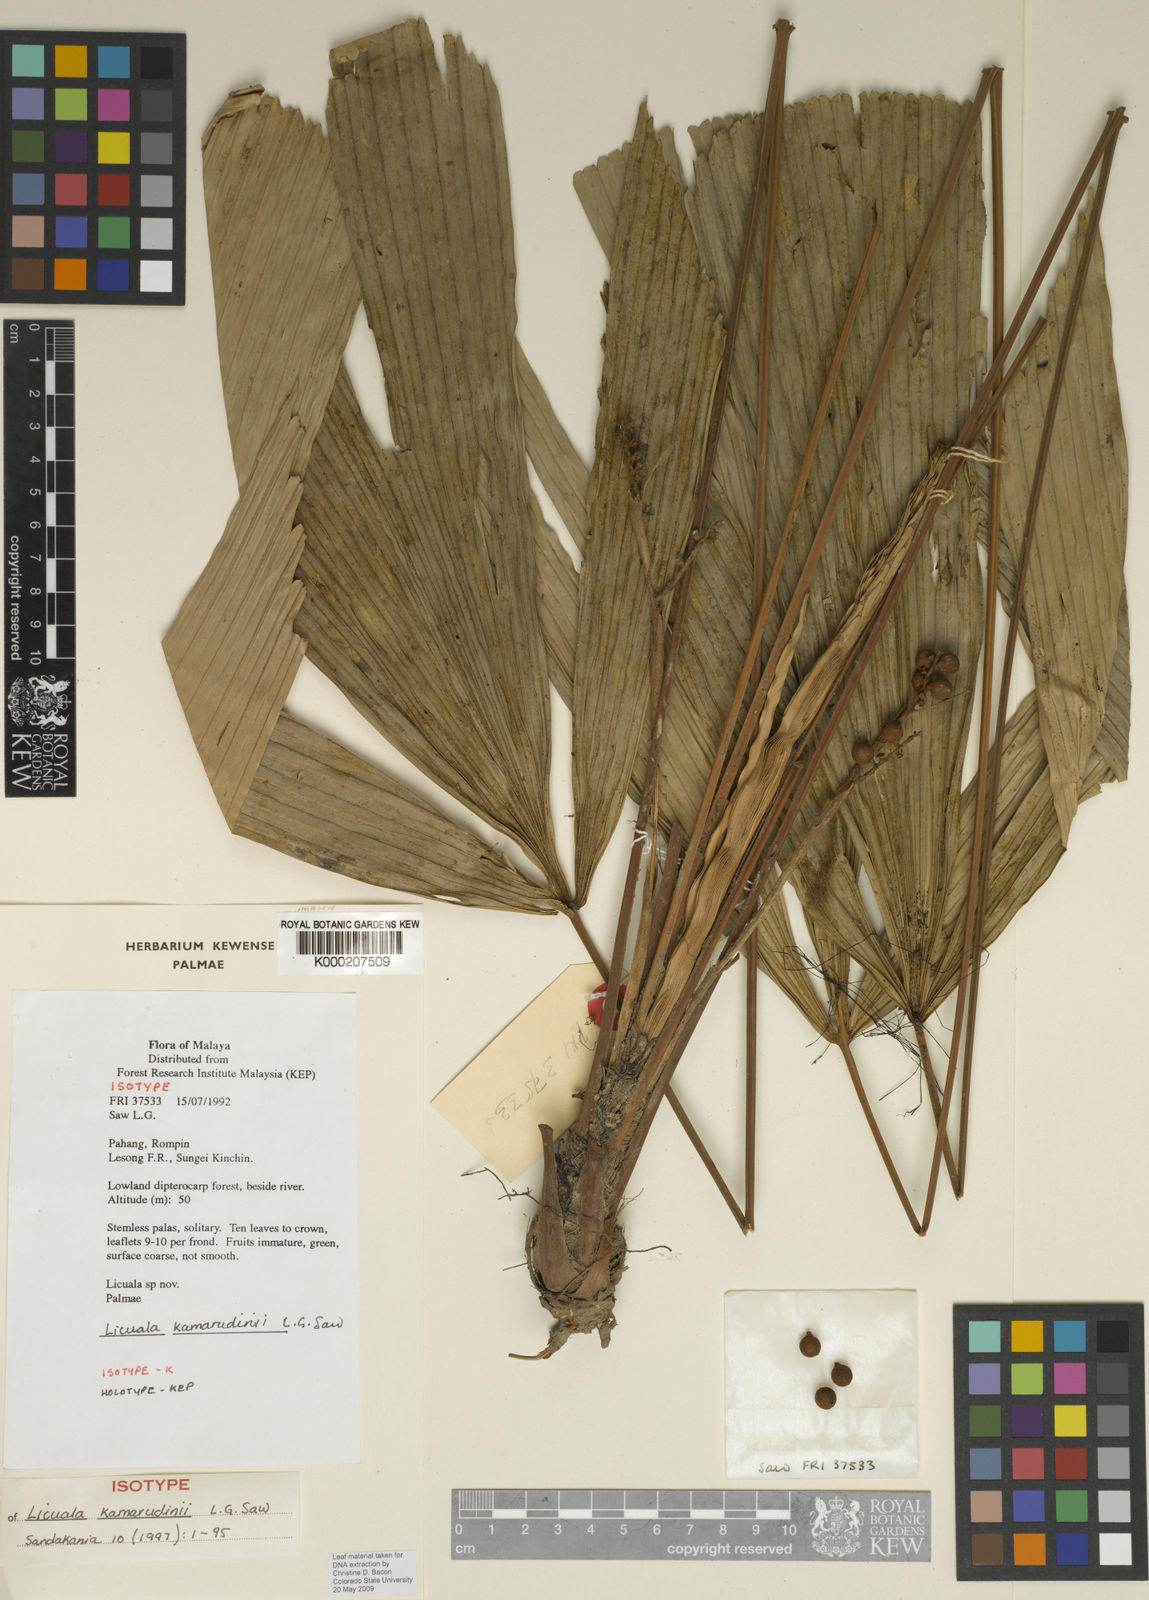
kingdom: Plantae
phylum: Tracheophyta
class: Liliopsida
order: Arecales
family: Arecaceae
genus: Licuala
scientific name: Licuala kamarudinii
